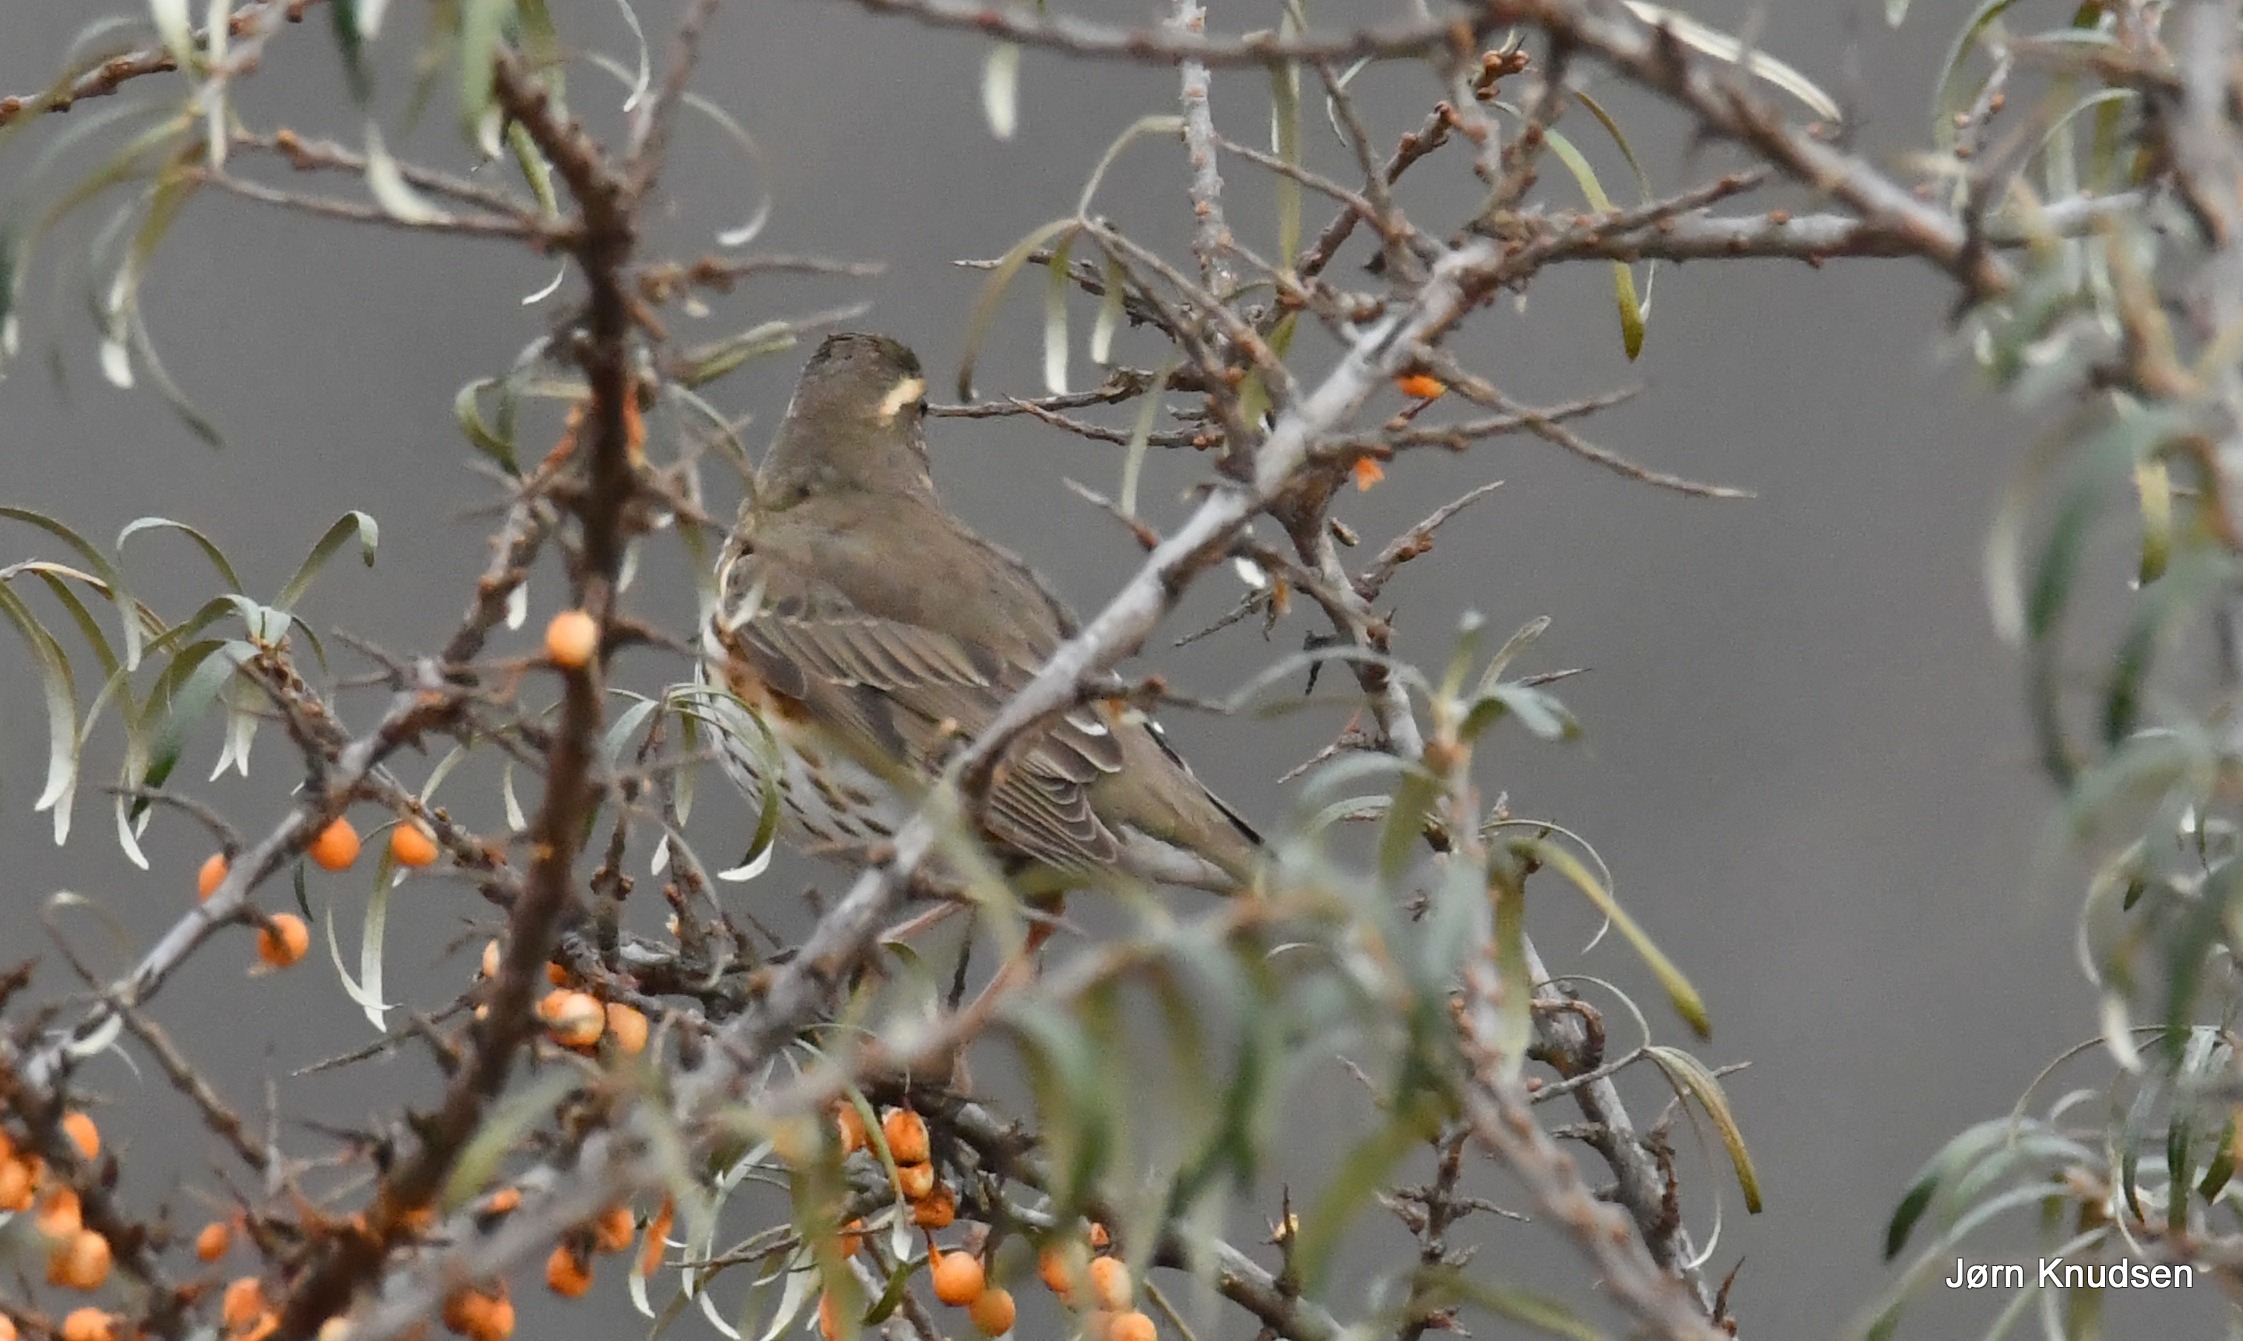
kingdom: Animalia
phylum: Chordata
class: Aves
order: Passeriformes
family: Turdidae
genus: Turdus
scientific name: Turdus iliacus
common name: Vindrossel
